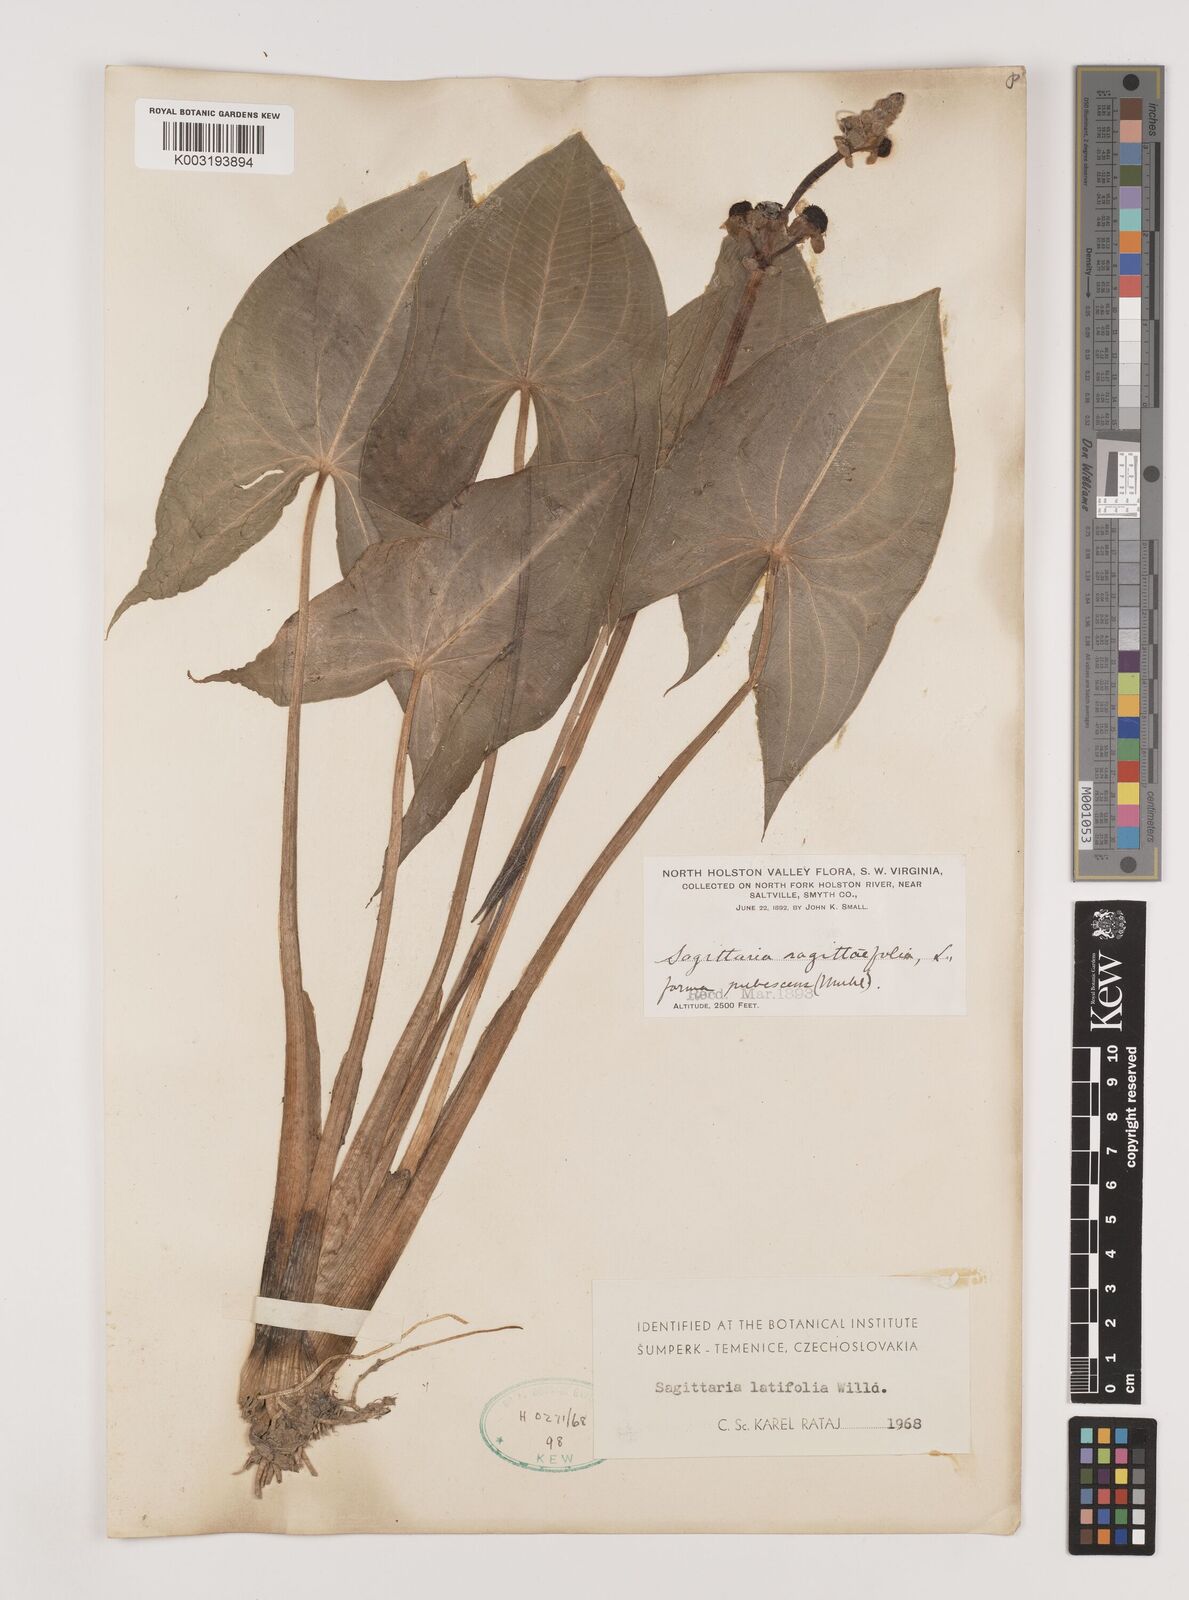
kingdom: Plantae
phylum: Tracheophyta
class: Liliopsida
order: Alismatales
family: Alismataceae
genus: Sagittaria
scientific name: Sagittaria latifolia
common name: Duck-potato
